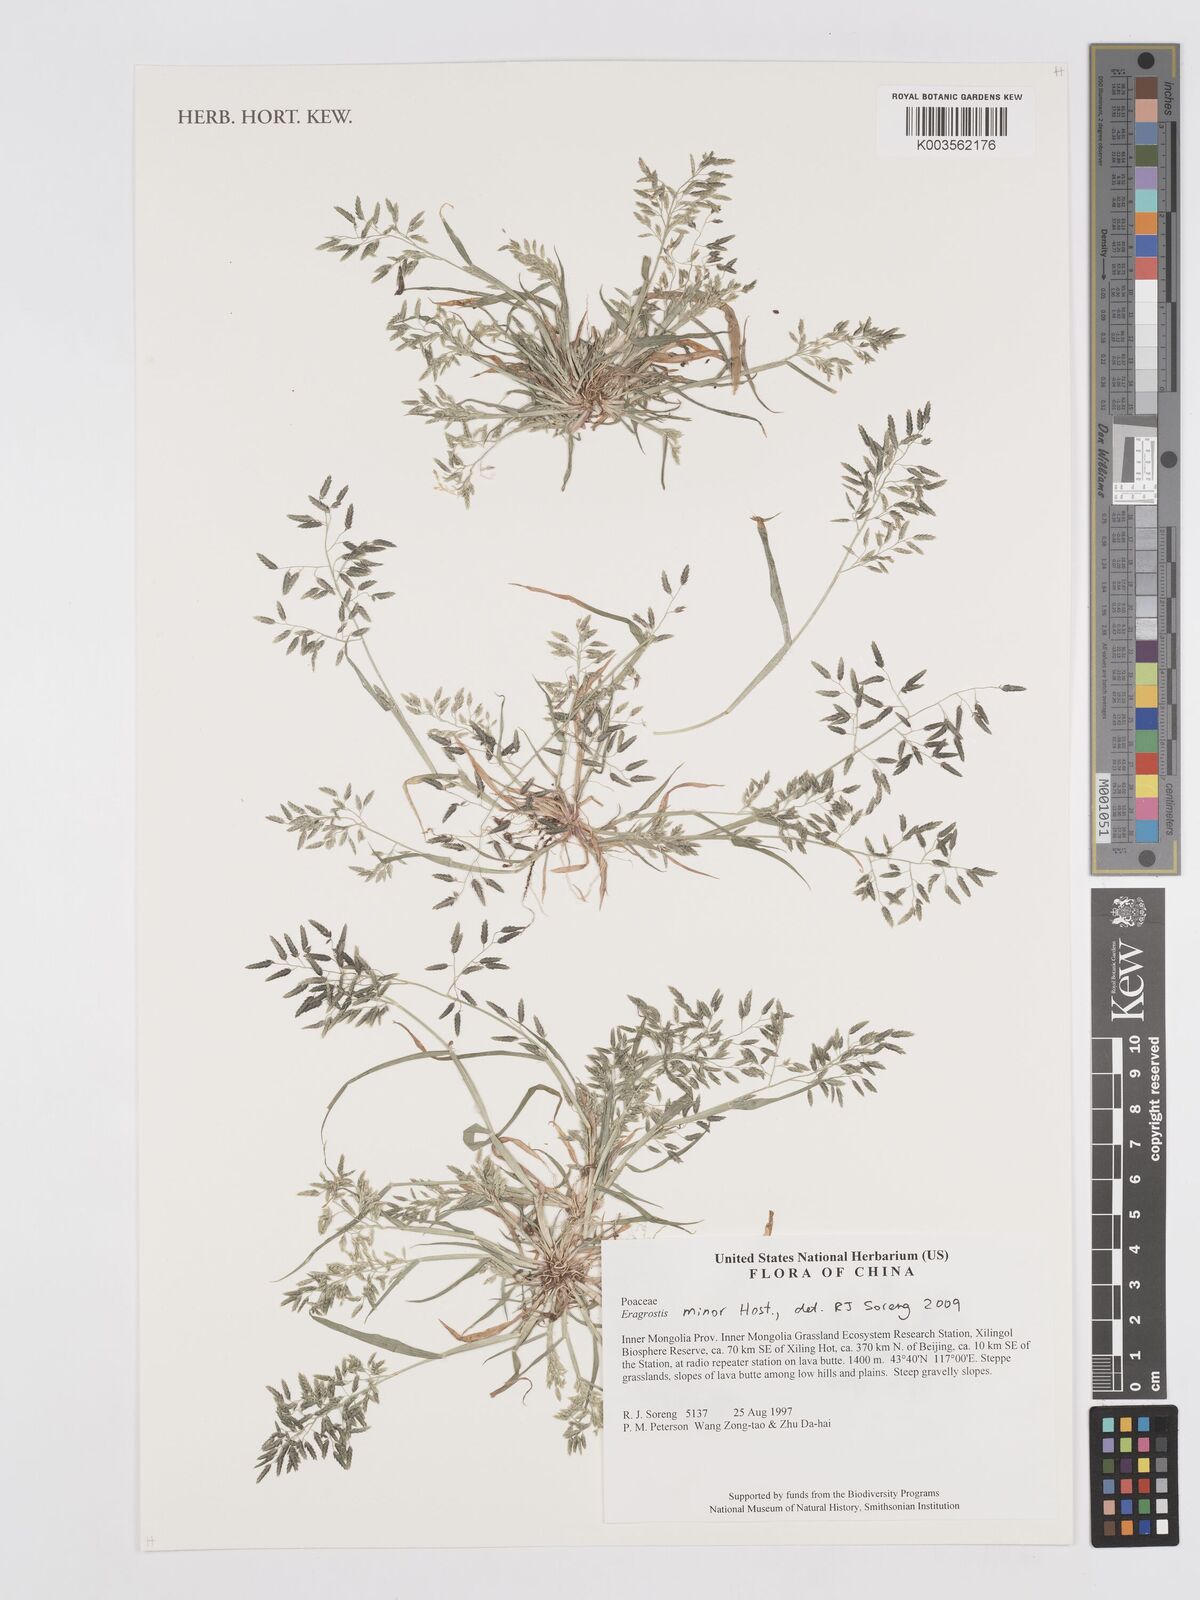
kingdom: Plantae
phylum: Tracheophyta
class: Liliopsida
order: Poales
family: Poaceae
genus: Eragrostis
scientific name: Eragrostis minor
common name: Small love-grass
